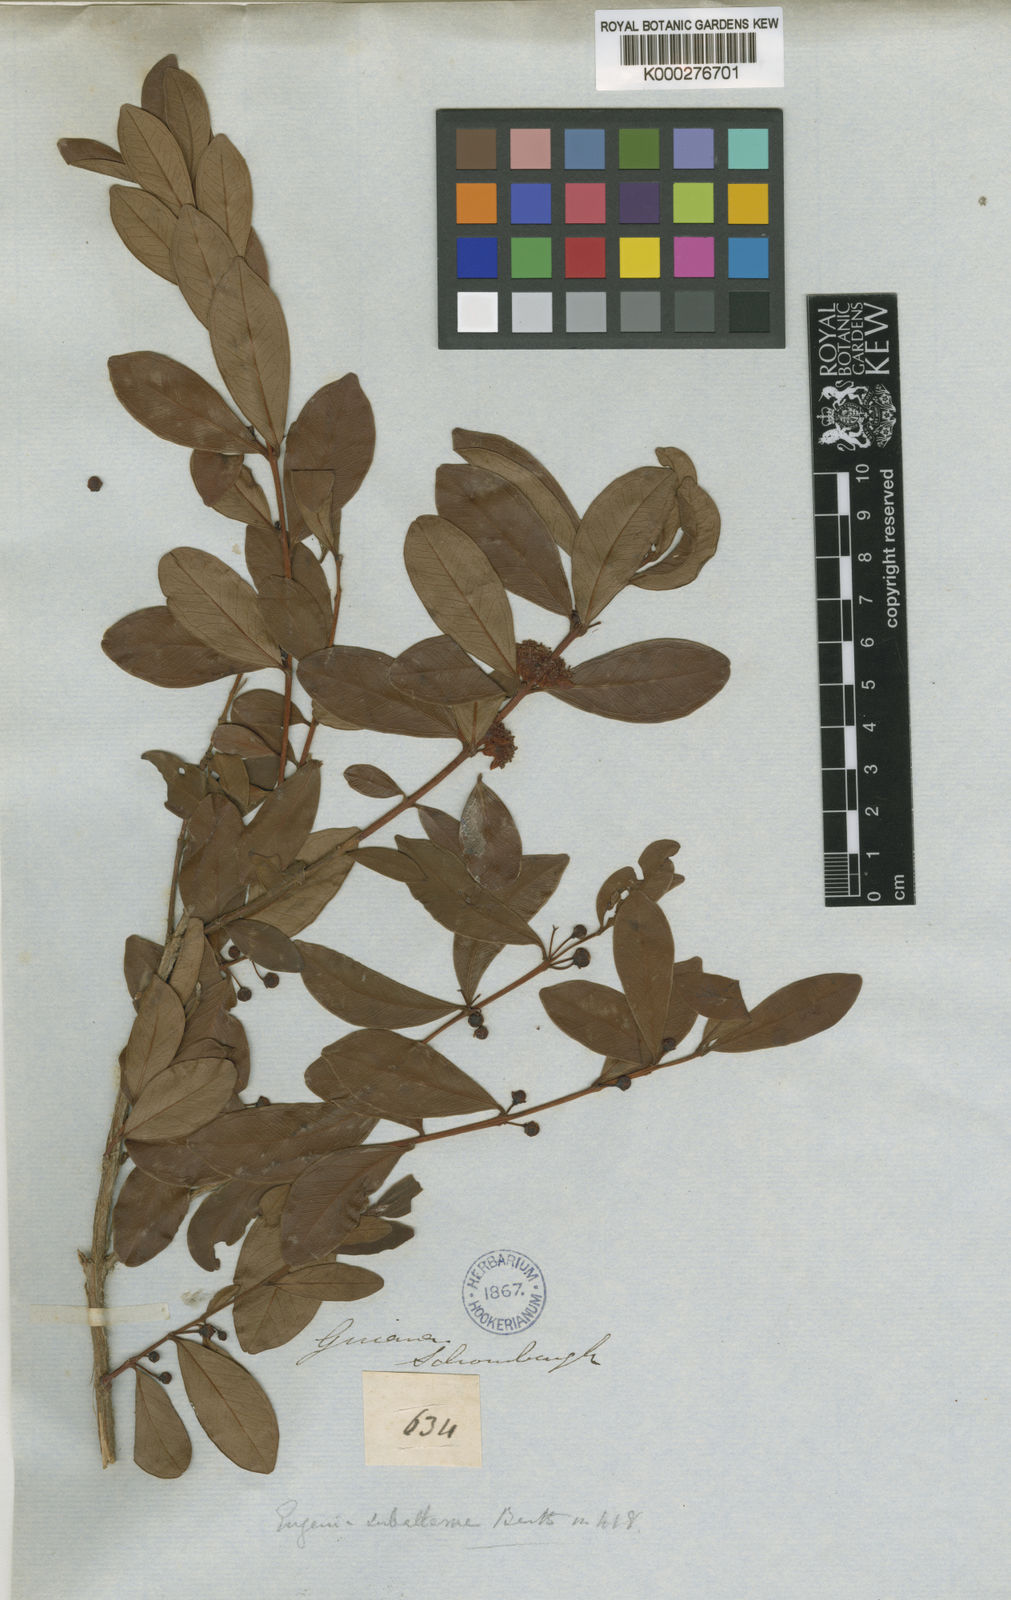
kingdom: Plantae
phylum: Tracheophyta
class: Magnoliopsida
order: Myrtales
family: Myrtaceae
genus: Eugenia
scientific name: Eugenia punicifolia
